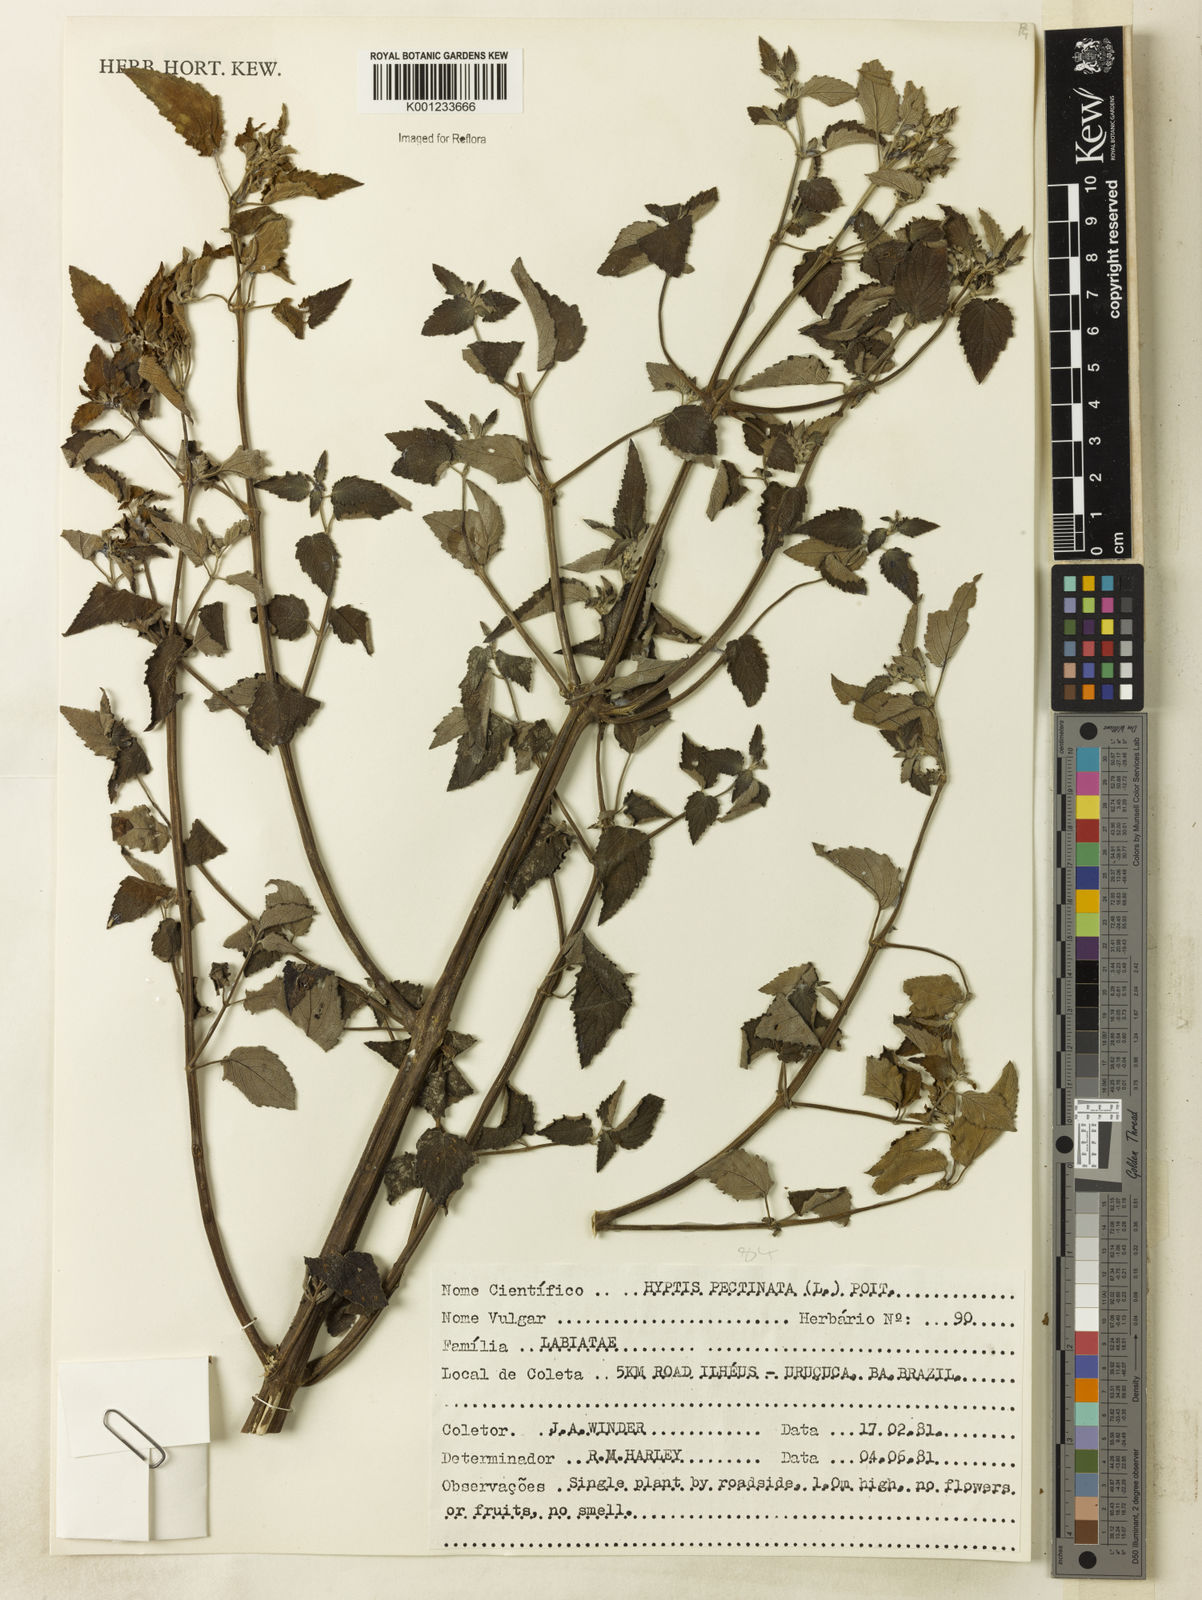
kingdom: Plantae
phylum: Tracheophyta
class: Magnoliopsida
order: Lamiales
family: Lamiaceae
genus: Mesosphaerum
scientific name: Mesosphaerum pectinatum
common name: Comb hyptis
